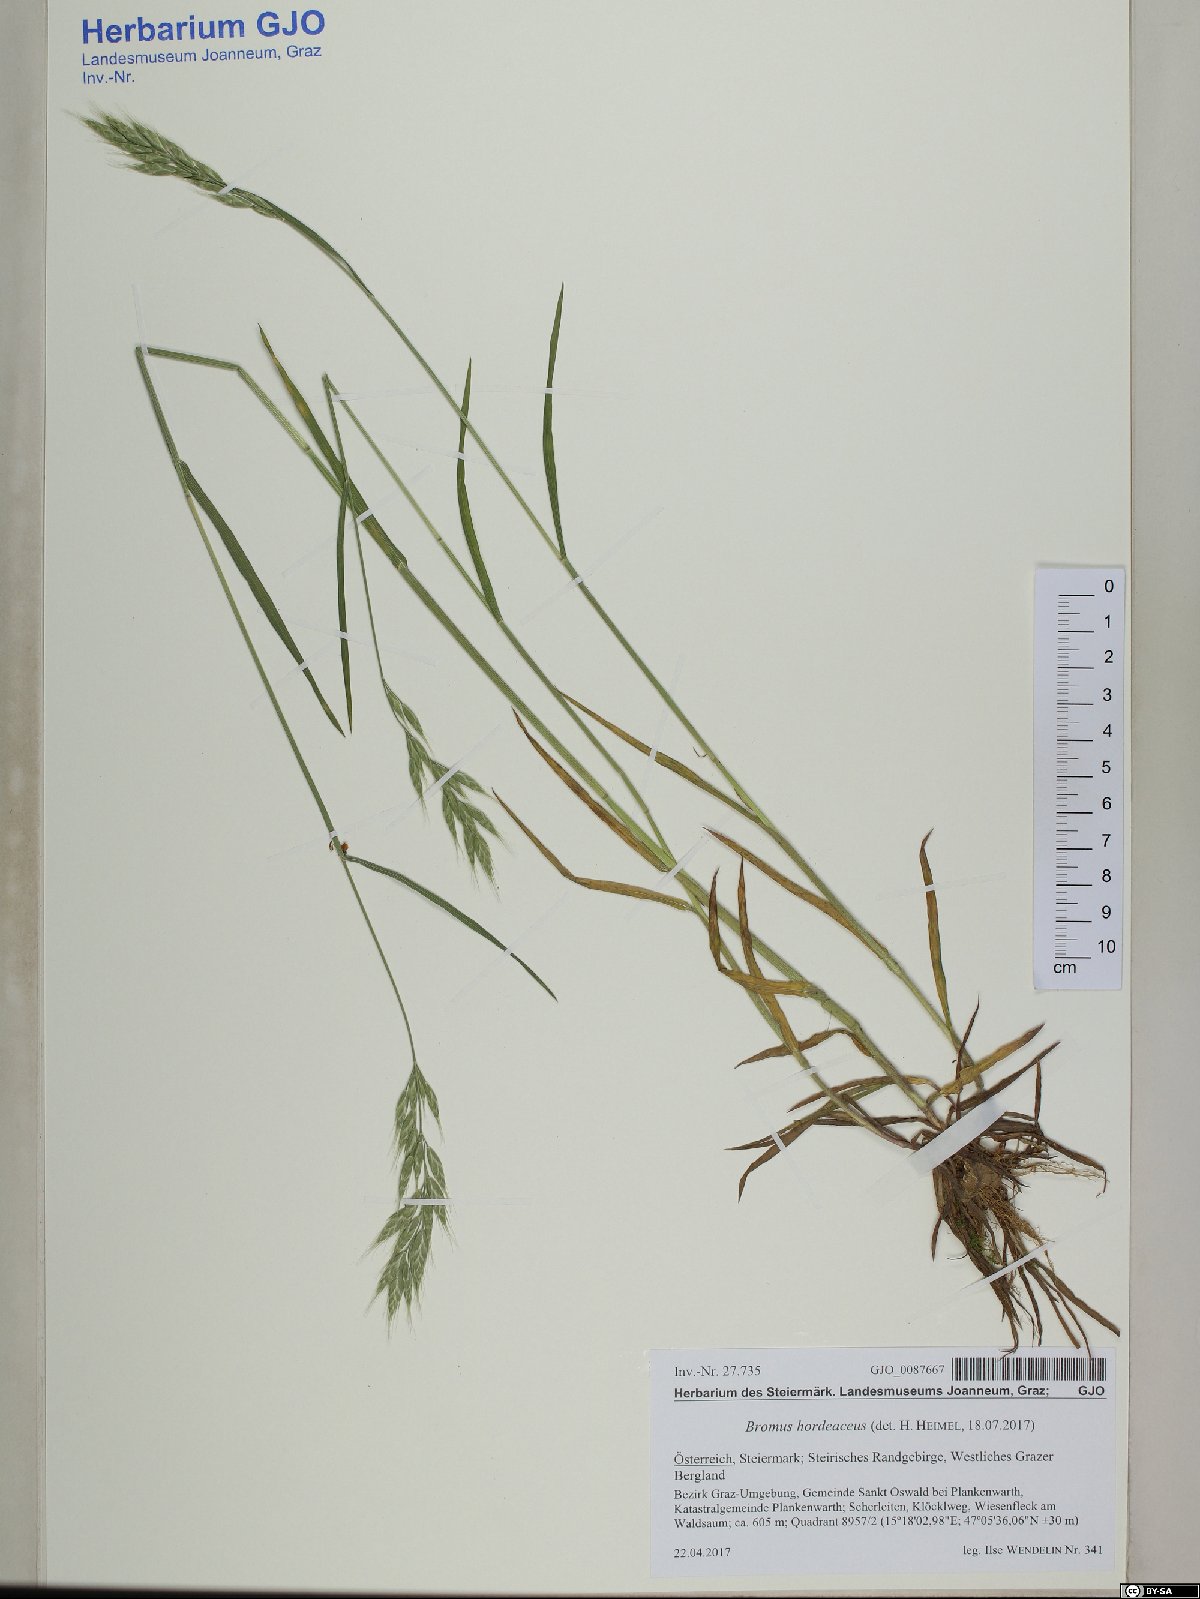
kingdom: Plantae
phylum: Tracheophyta
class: Liliopsida
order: Poales
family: Poaceae
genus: Bromus
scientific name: Bromus hordeaceus
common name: Soft brome
